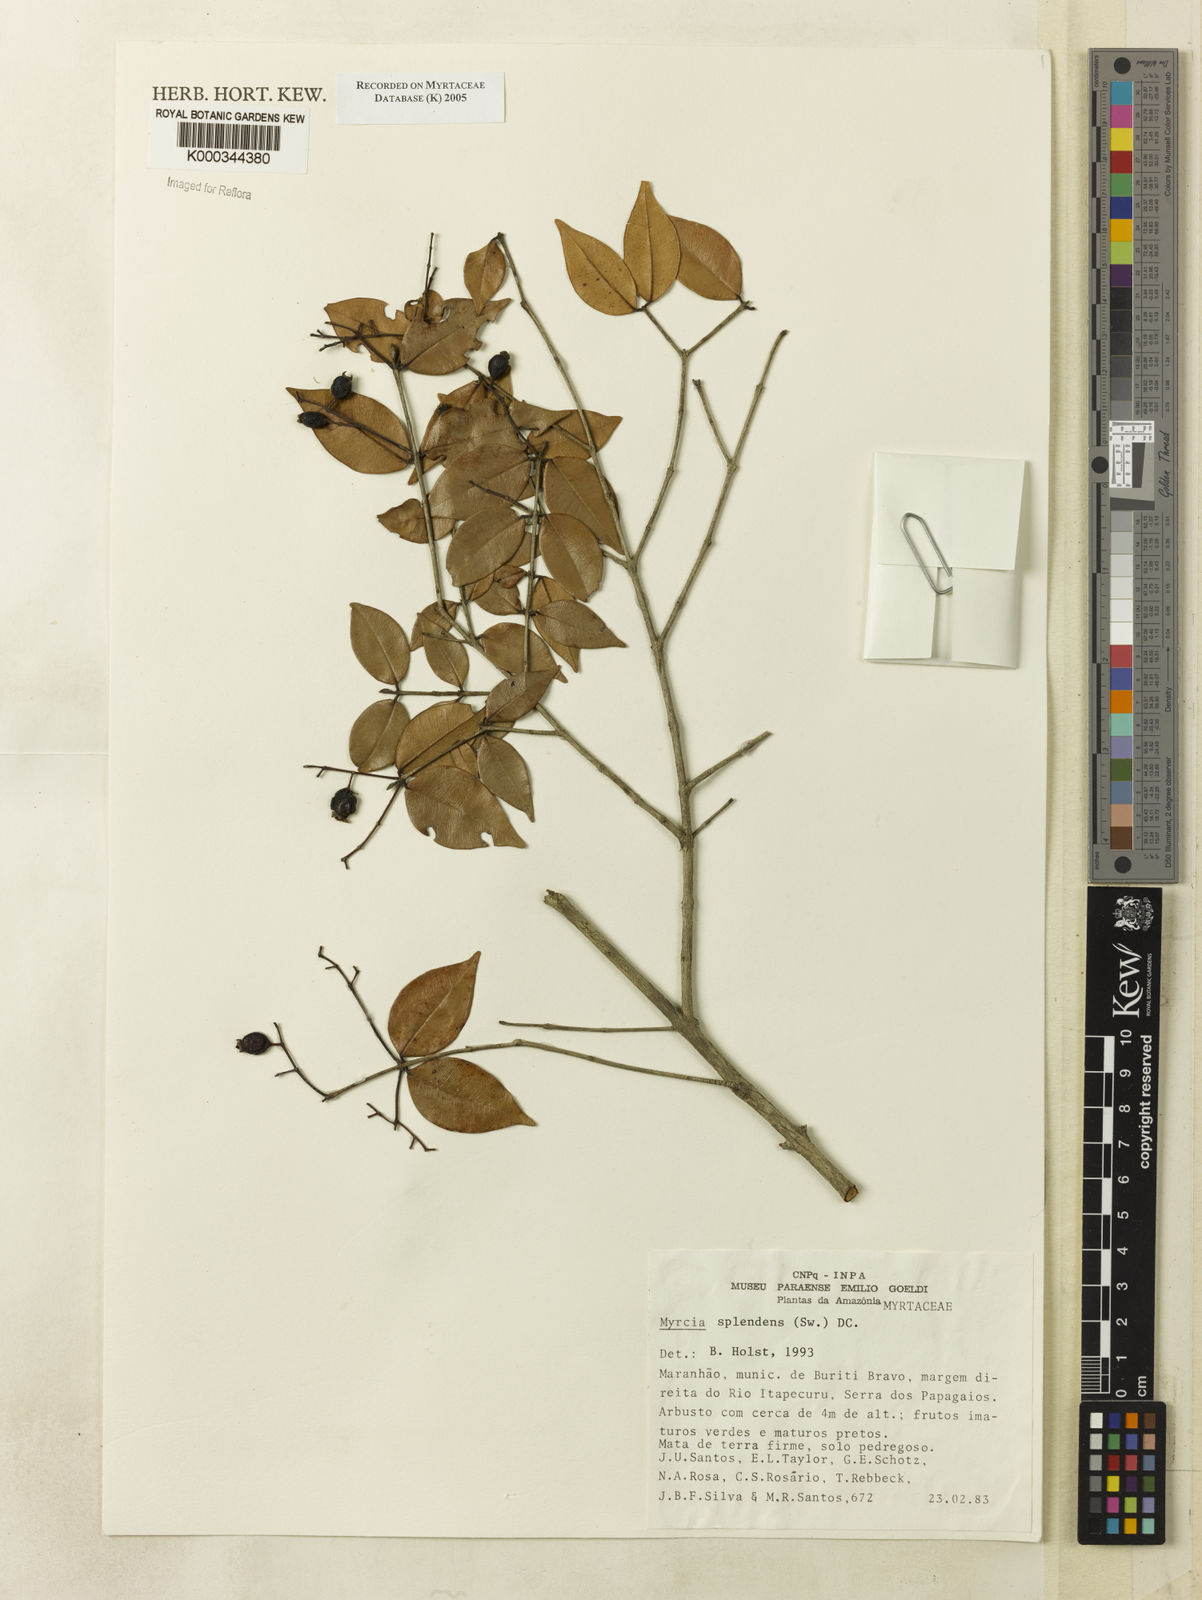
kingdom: Plantae
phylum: Tracheophyta
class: Magnoliopsida
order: Myrtales
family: Myrtaceae
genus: Myrcia
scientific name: Myrcia splendens
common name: Surinam cherry
